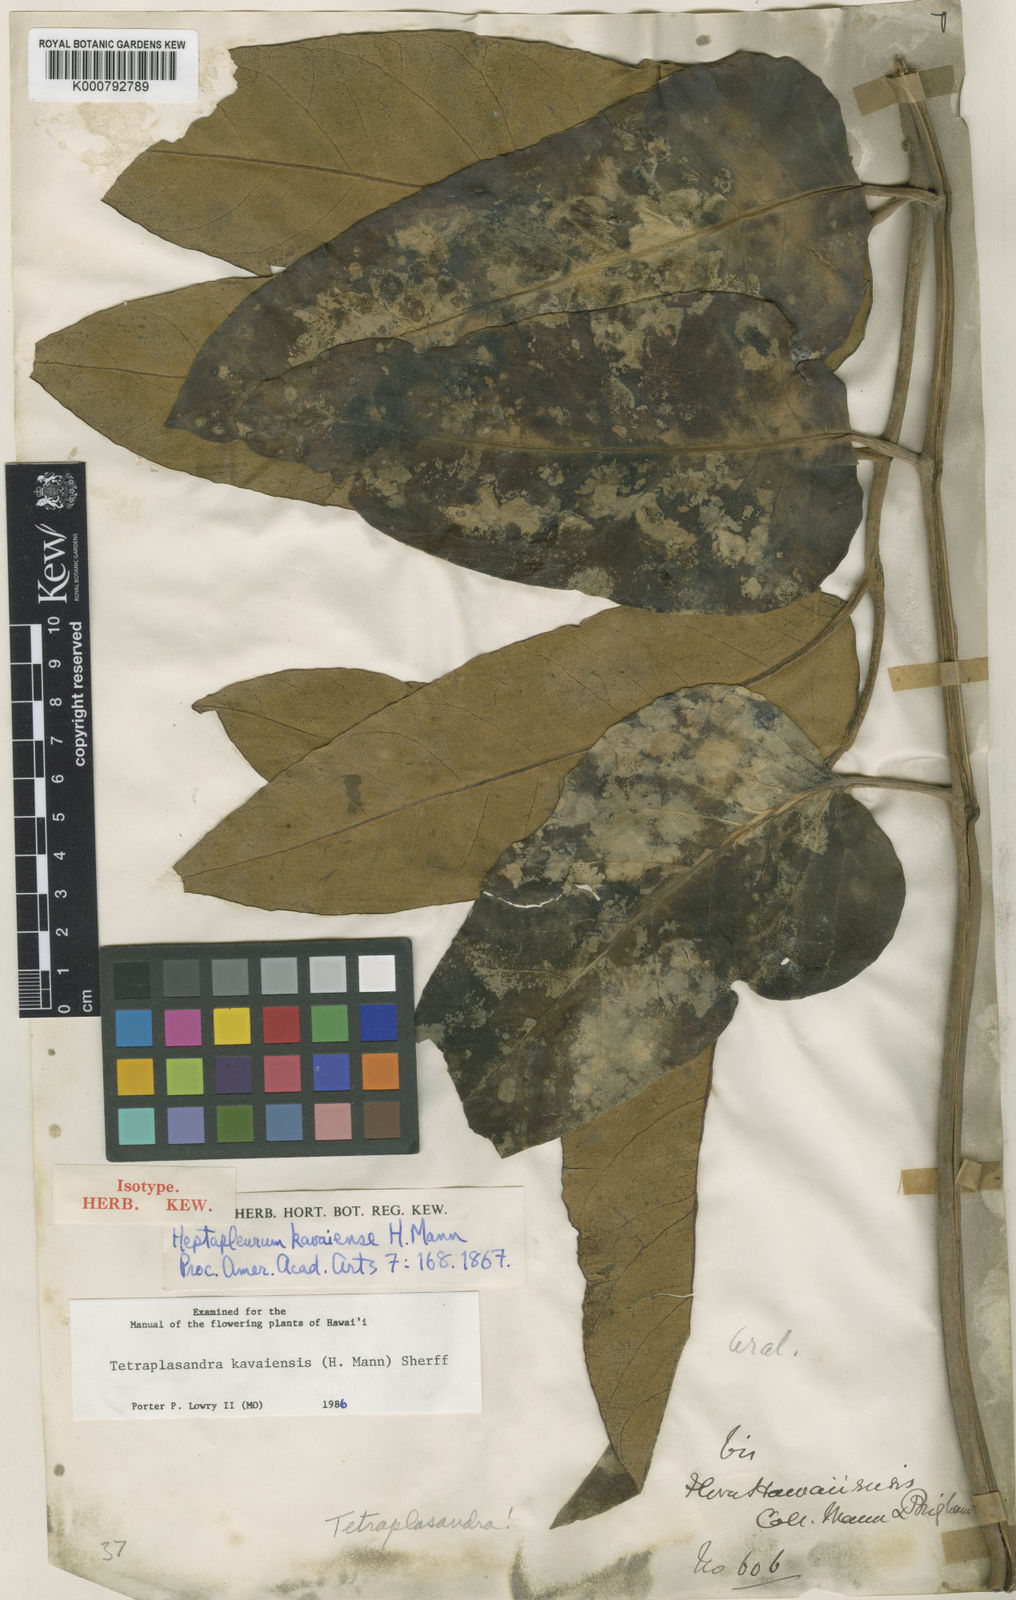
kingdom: Plantae
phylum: Tracheophyta
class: Magnoliopsida
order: Apiales
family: Araliaceae
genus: Polyscias
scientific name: Polyscias kavaiensis
